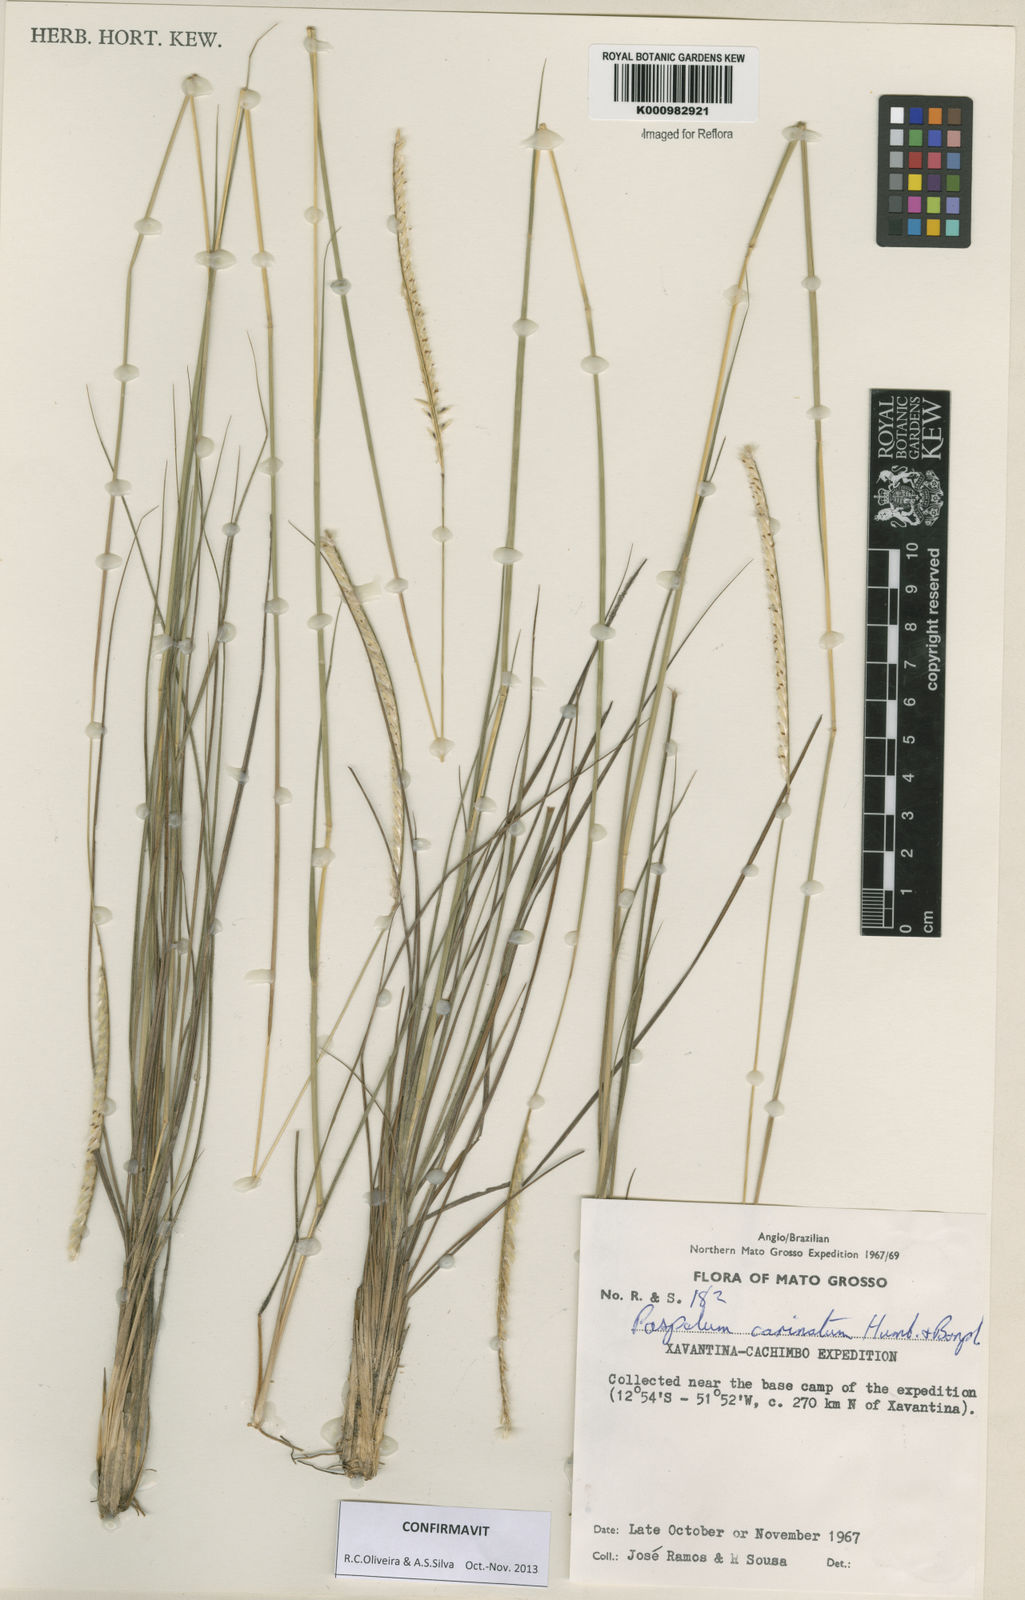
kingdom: Plantae
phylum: Tracheophyta
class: Liliopsida
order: Poales
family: Poaceae
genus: Paspalum
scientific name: Paspalum
